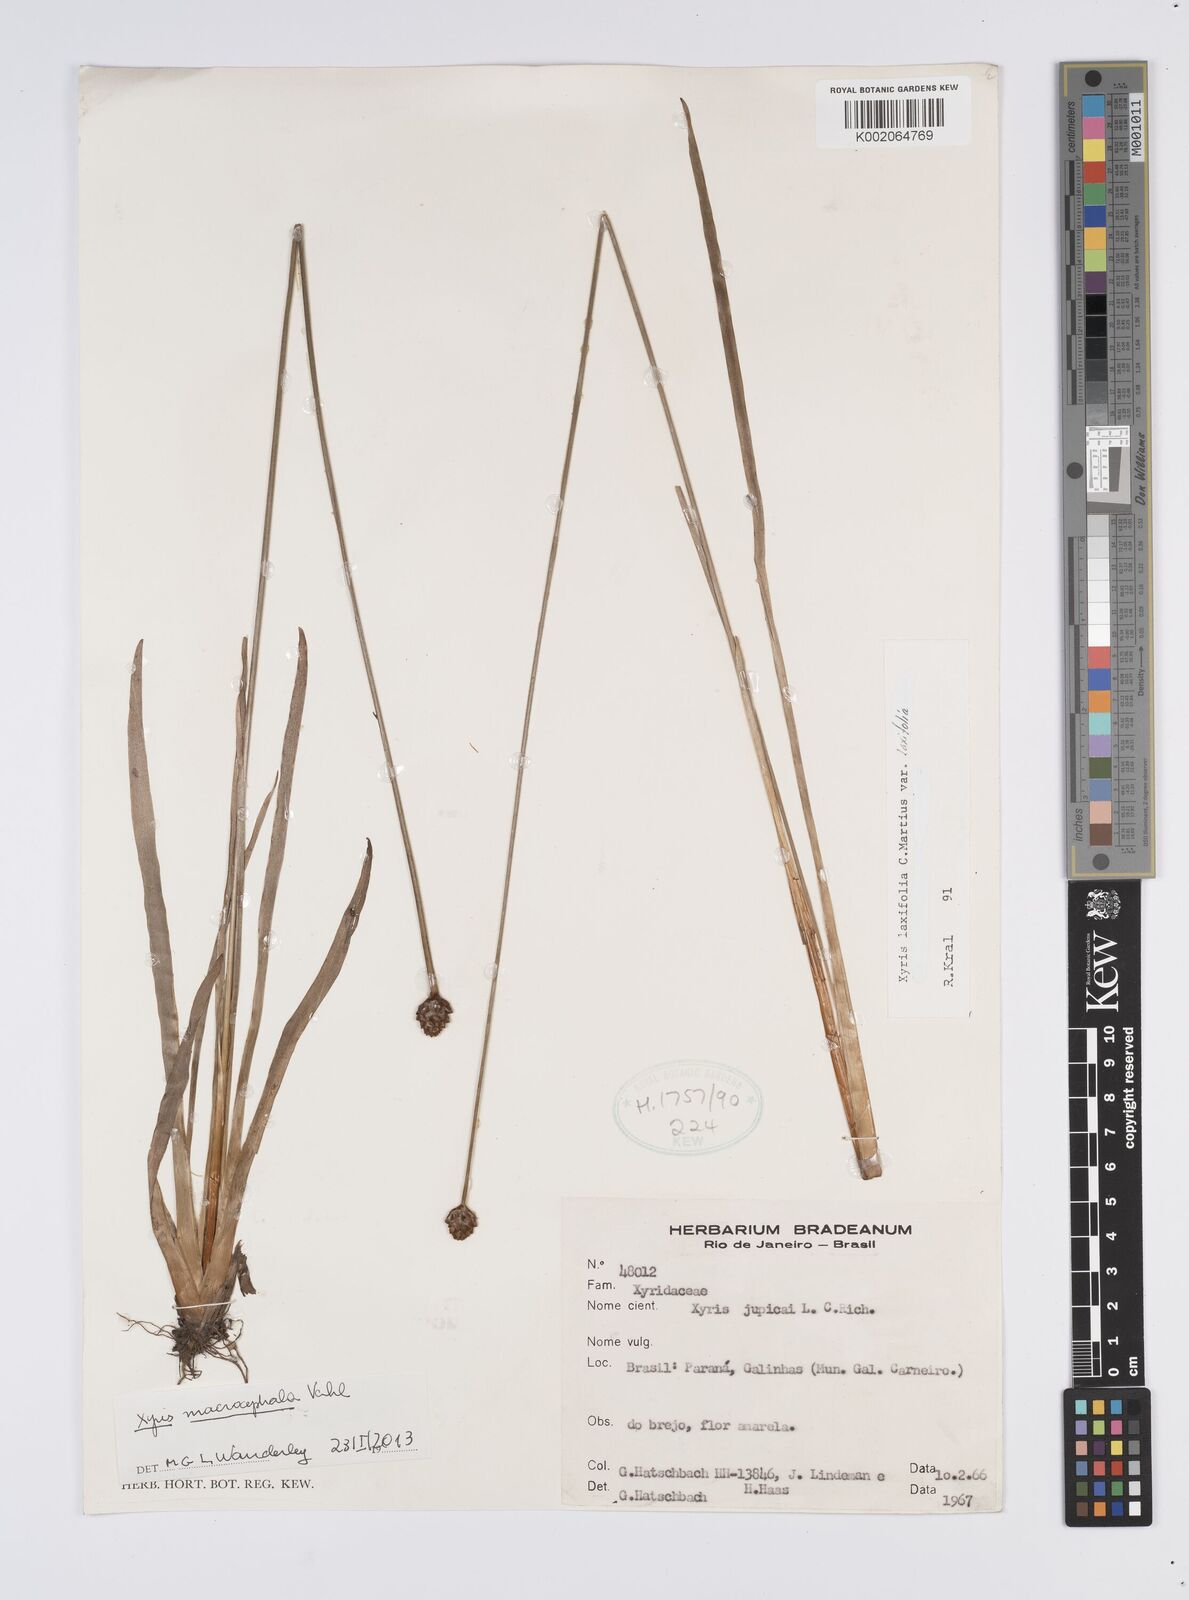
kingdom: Plantae
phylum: Tracheophyta
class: Liliopsida
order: Poales
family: Xyridaceae
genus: Xyris
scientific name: Xyris jupicai
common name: Richard's yelloweyed grass
